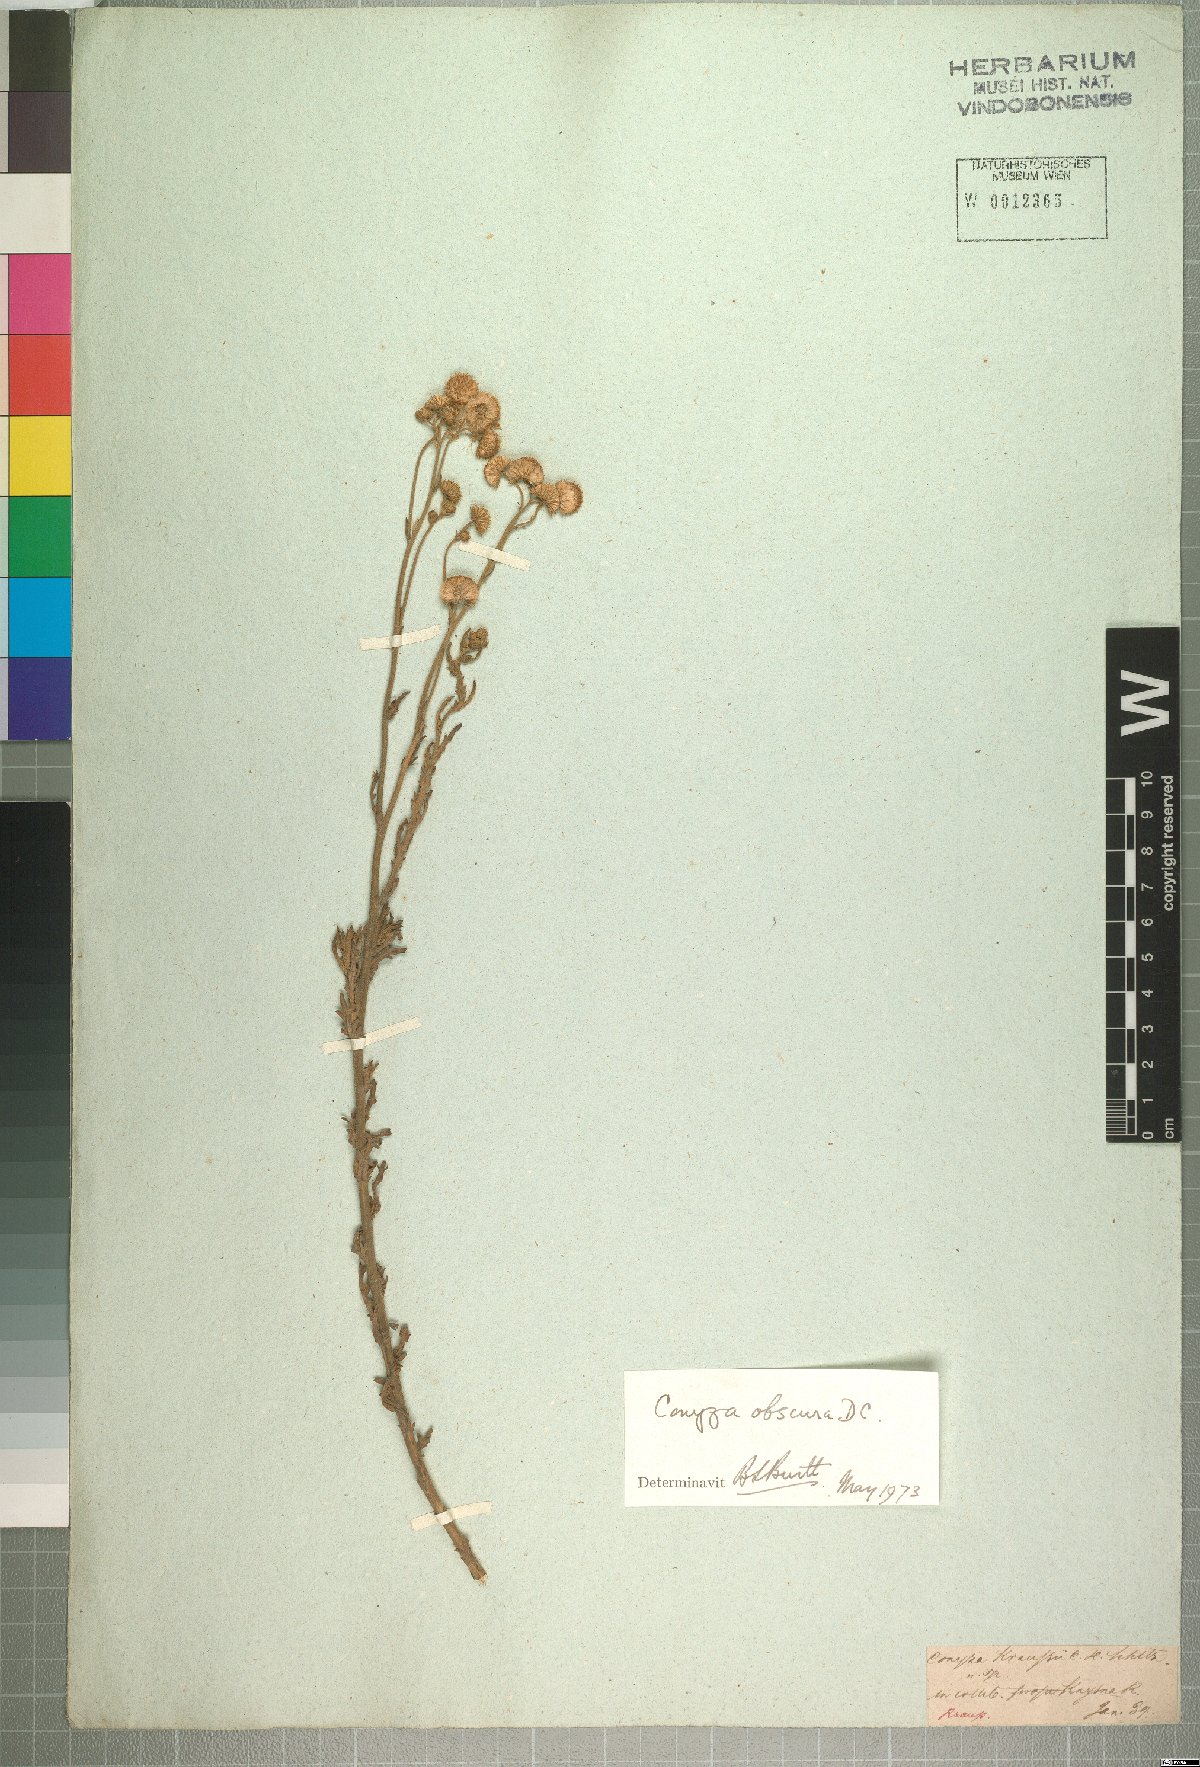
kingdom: Plantae
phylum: Tracheophyta
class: Magnoliopsida
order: Asterales
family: Asteraceae
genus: Nidorella
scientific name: Nidorella obscura
